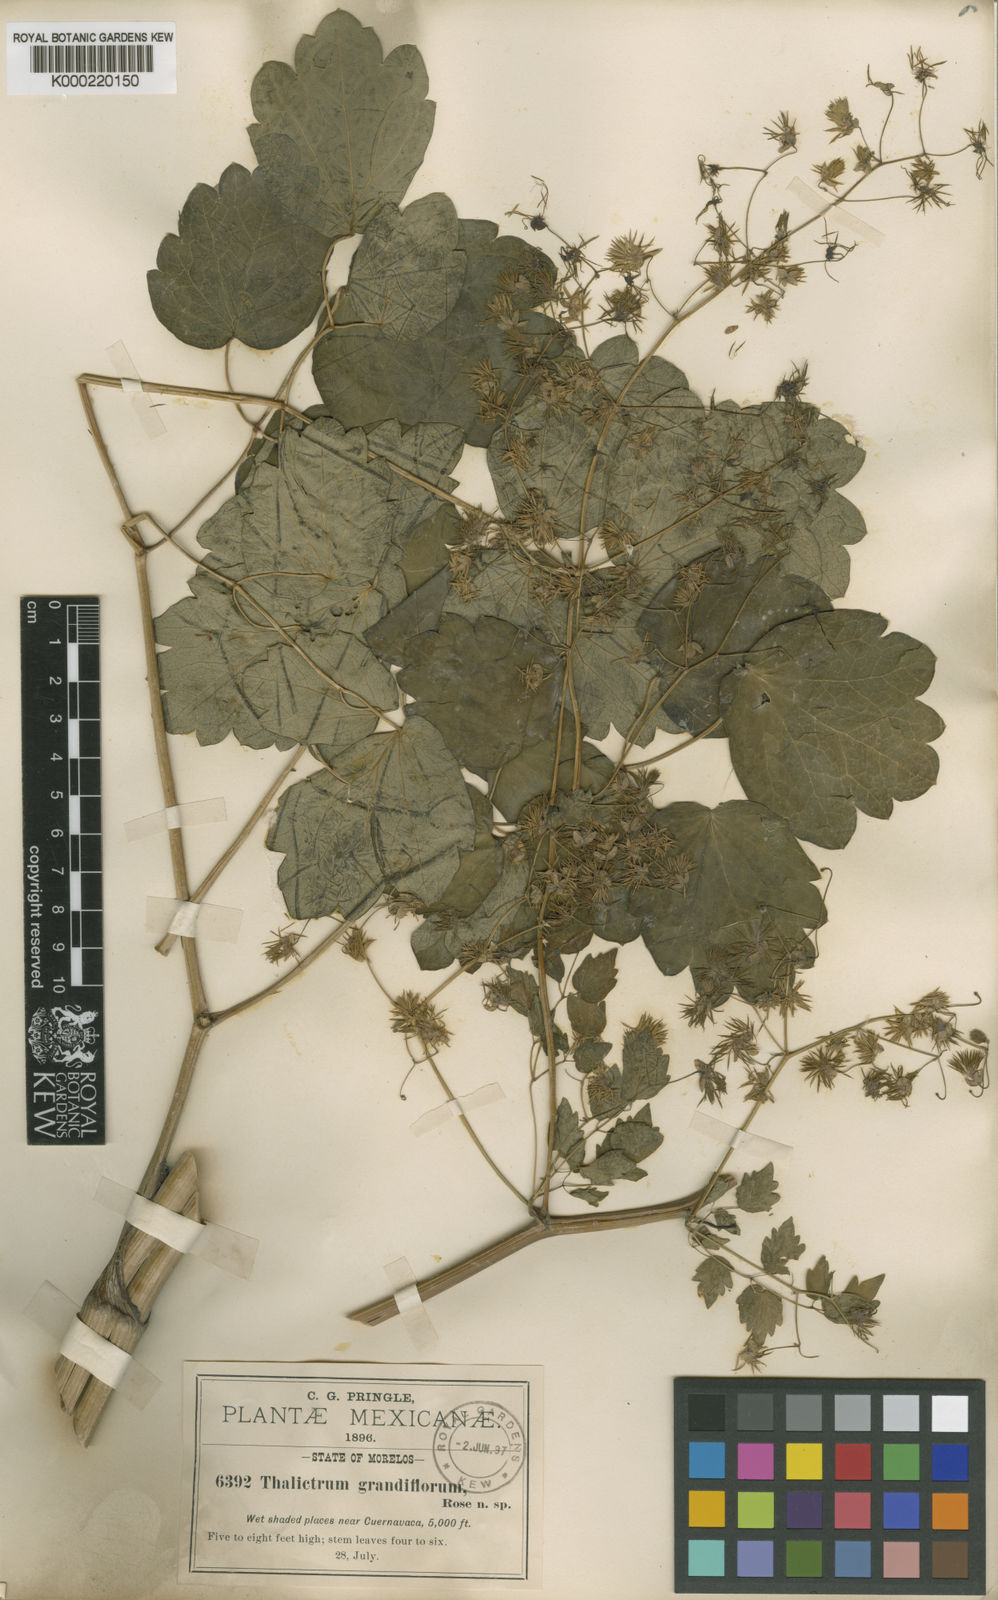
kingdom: Plantae
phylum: Tracheophyta
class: Magnoliopsida
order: Ranunculales
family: Ranunculaceae
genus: Thalictrum
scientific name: Thalictrum grandifolium
